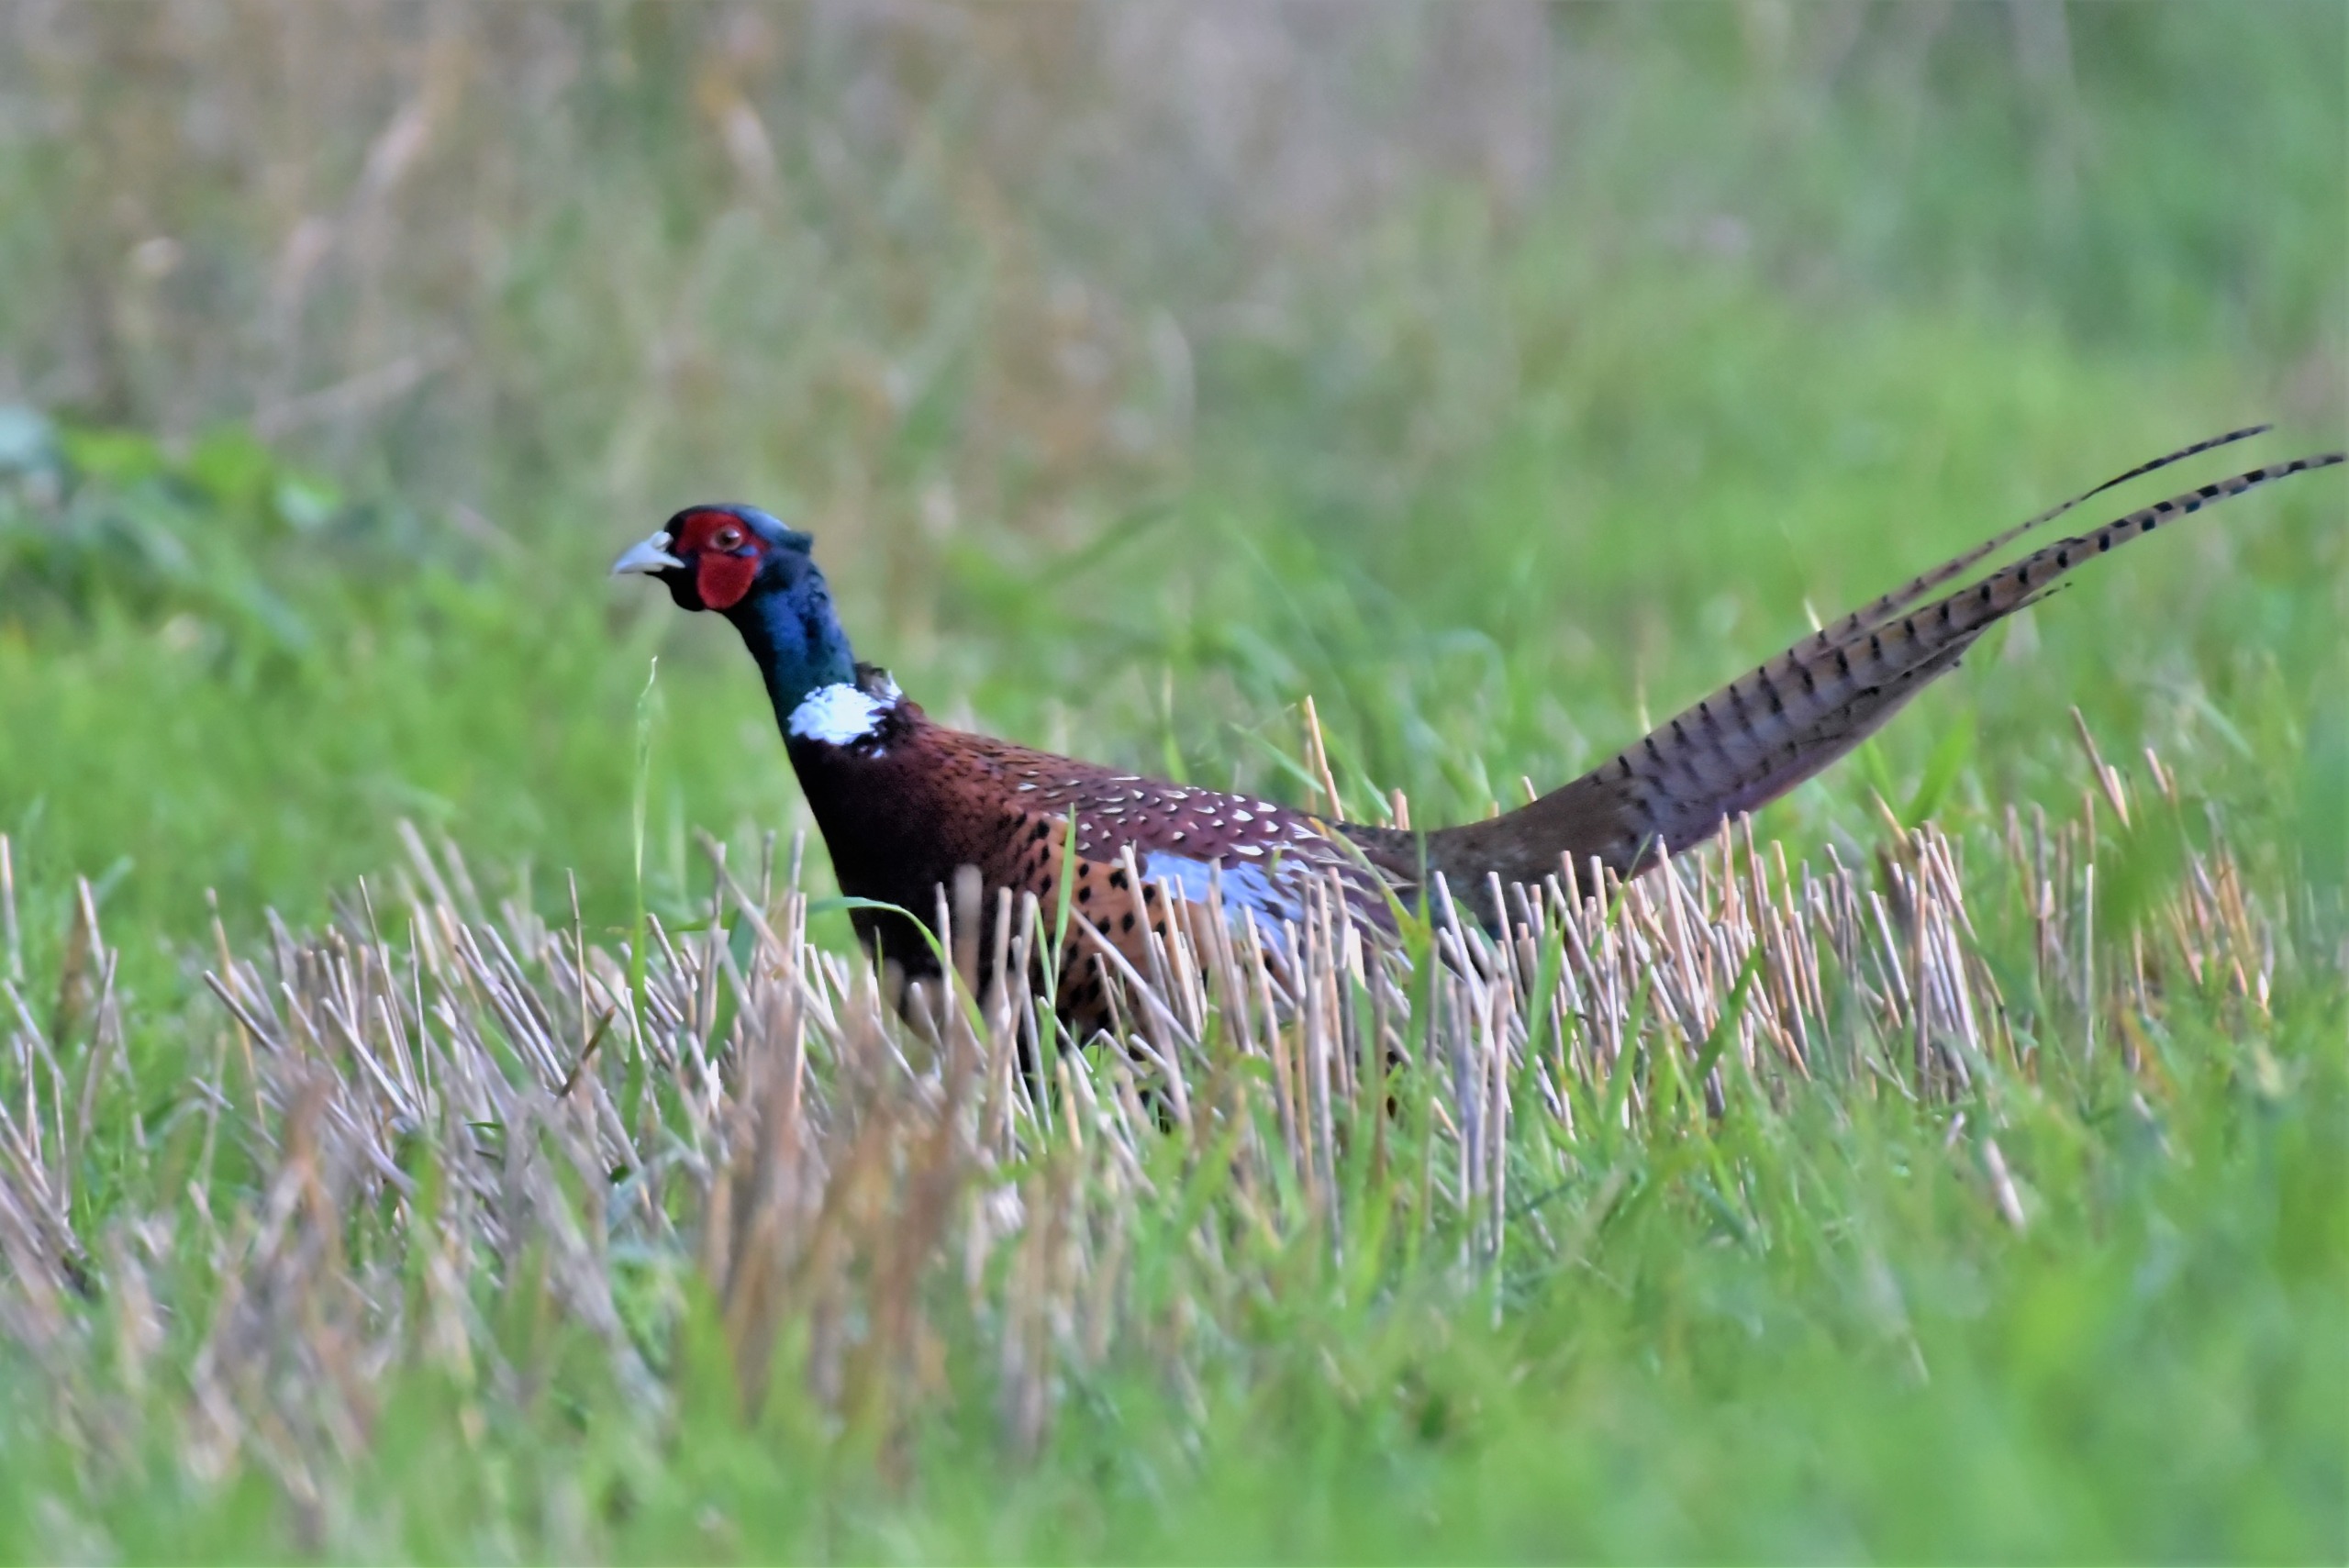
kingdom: Animalia
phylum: Chordata
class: Aves
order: Galliformes
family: Phasianidae
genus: Phasianus
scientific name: Phasianus colchicus
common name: Fasan
